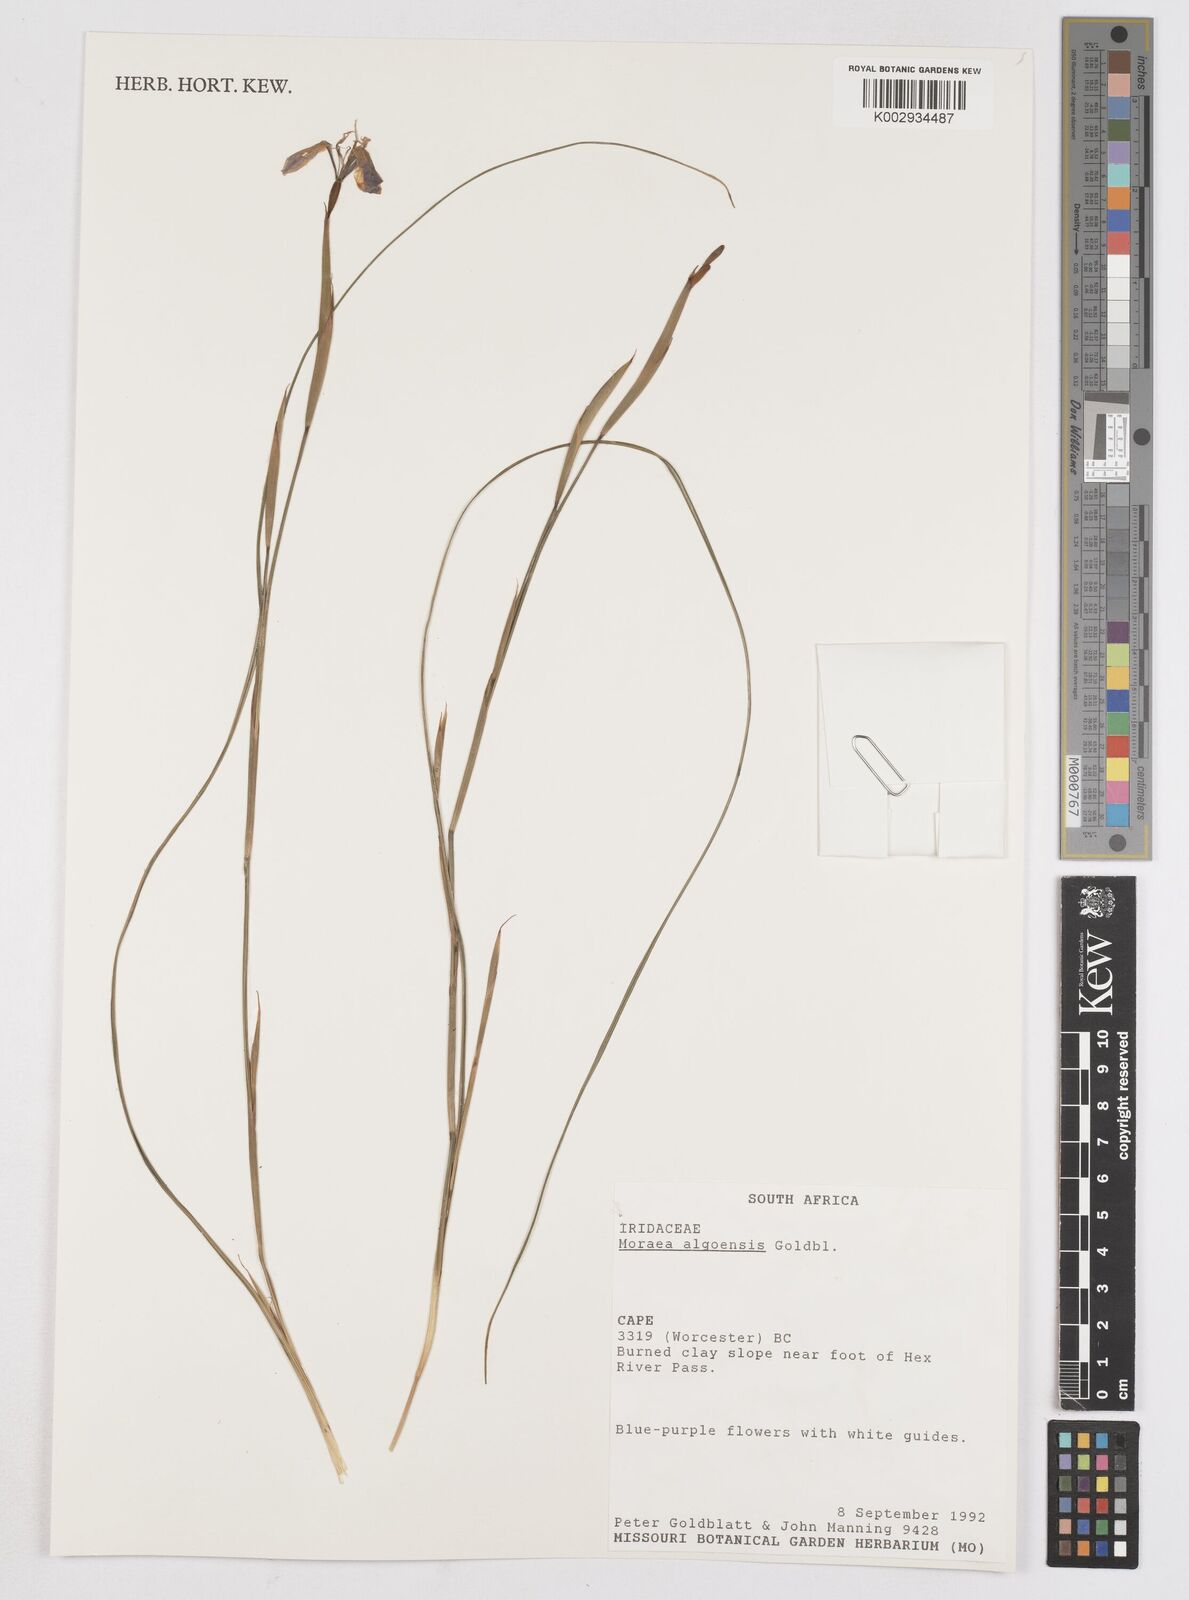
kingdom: Plantae
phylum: Tracheophyta
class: Liliopsida
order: Asparagales
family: Iridaceae
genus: Moraea
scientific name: Moraea algoensis
